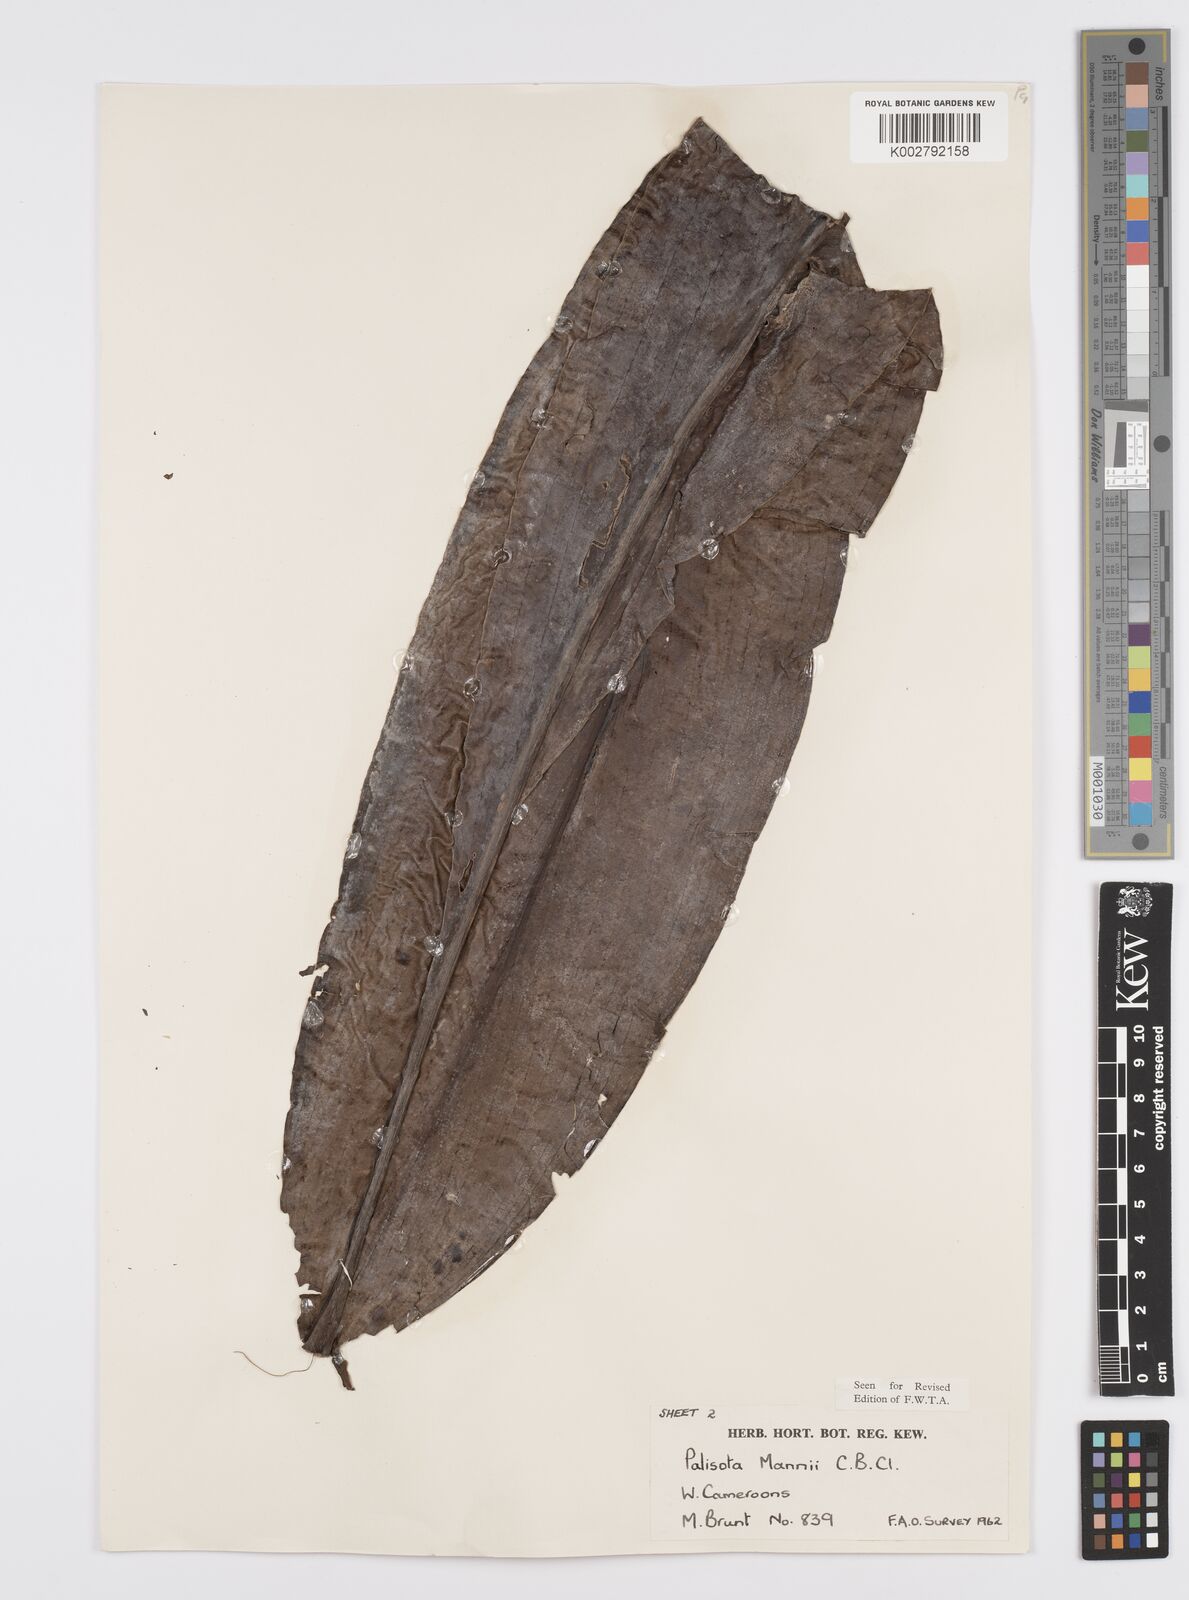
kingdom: Plantae
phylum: Tracheophyta
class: Liliopsida
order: Commelinales
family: Commelinaceae
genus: Palisota
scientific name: Palisota mannii
